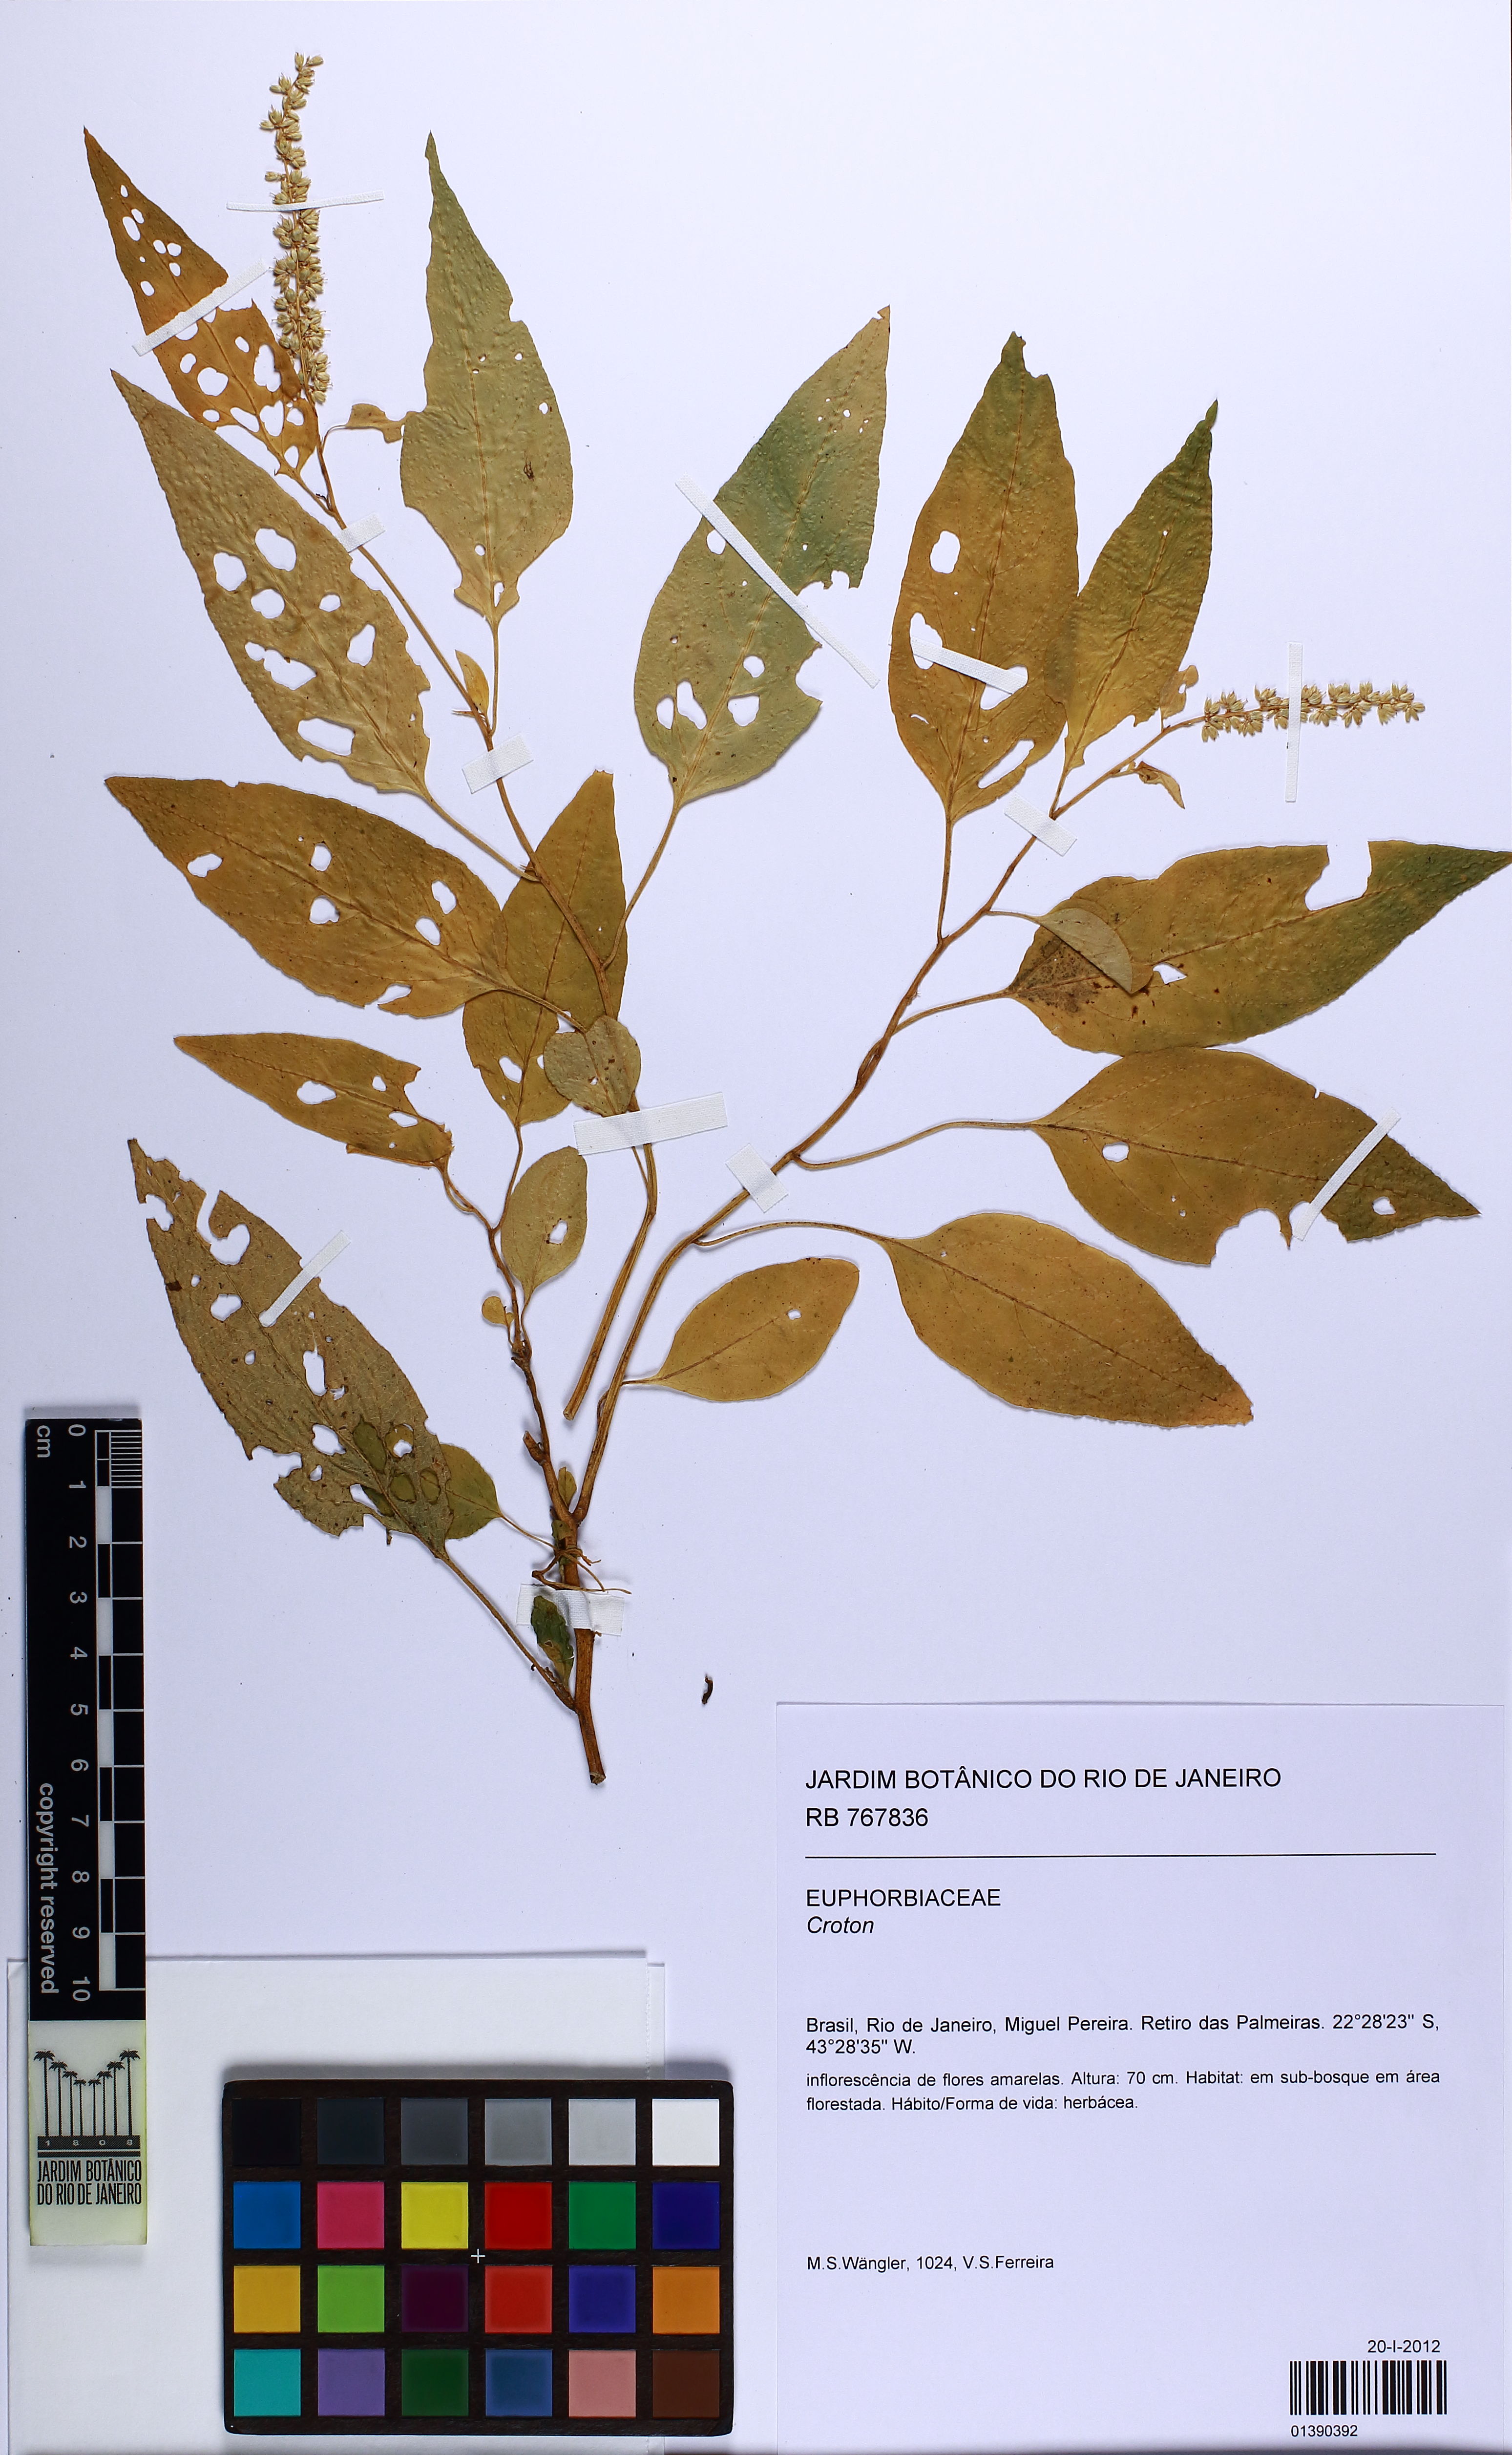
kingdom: Plantae
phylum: Tracheophyta
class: Magnoliopsida
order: Caryophyllales
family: Amaranthaceae
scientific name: Amaranthaceae
